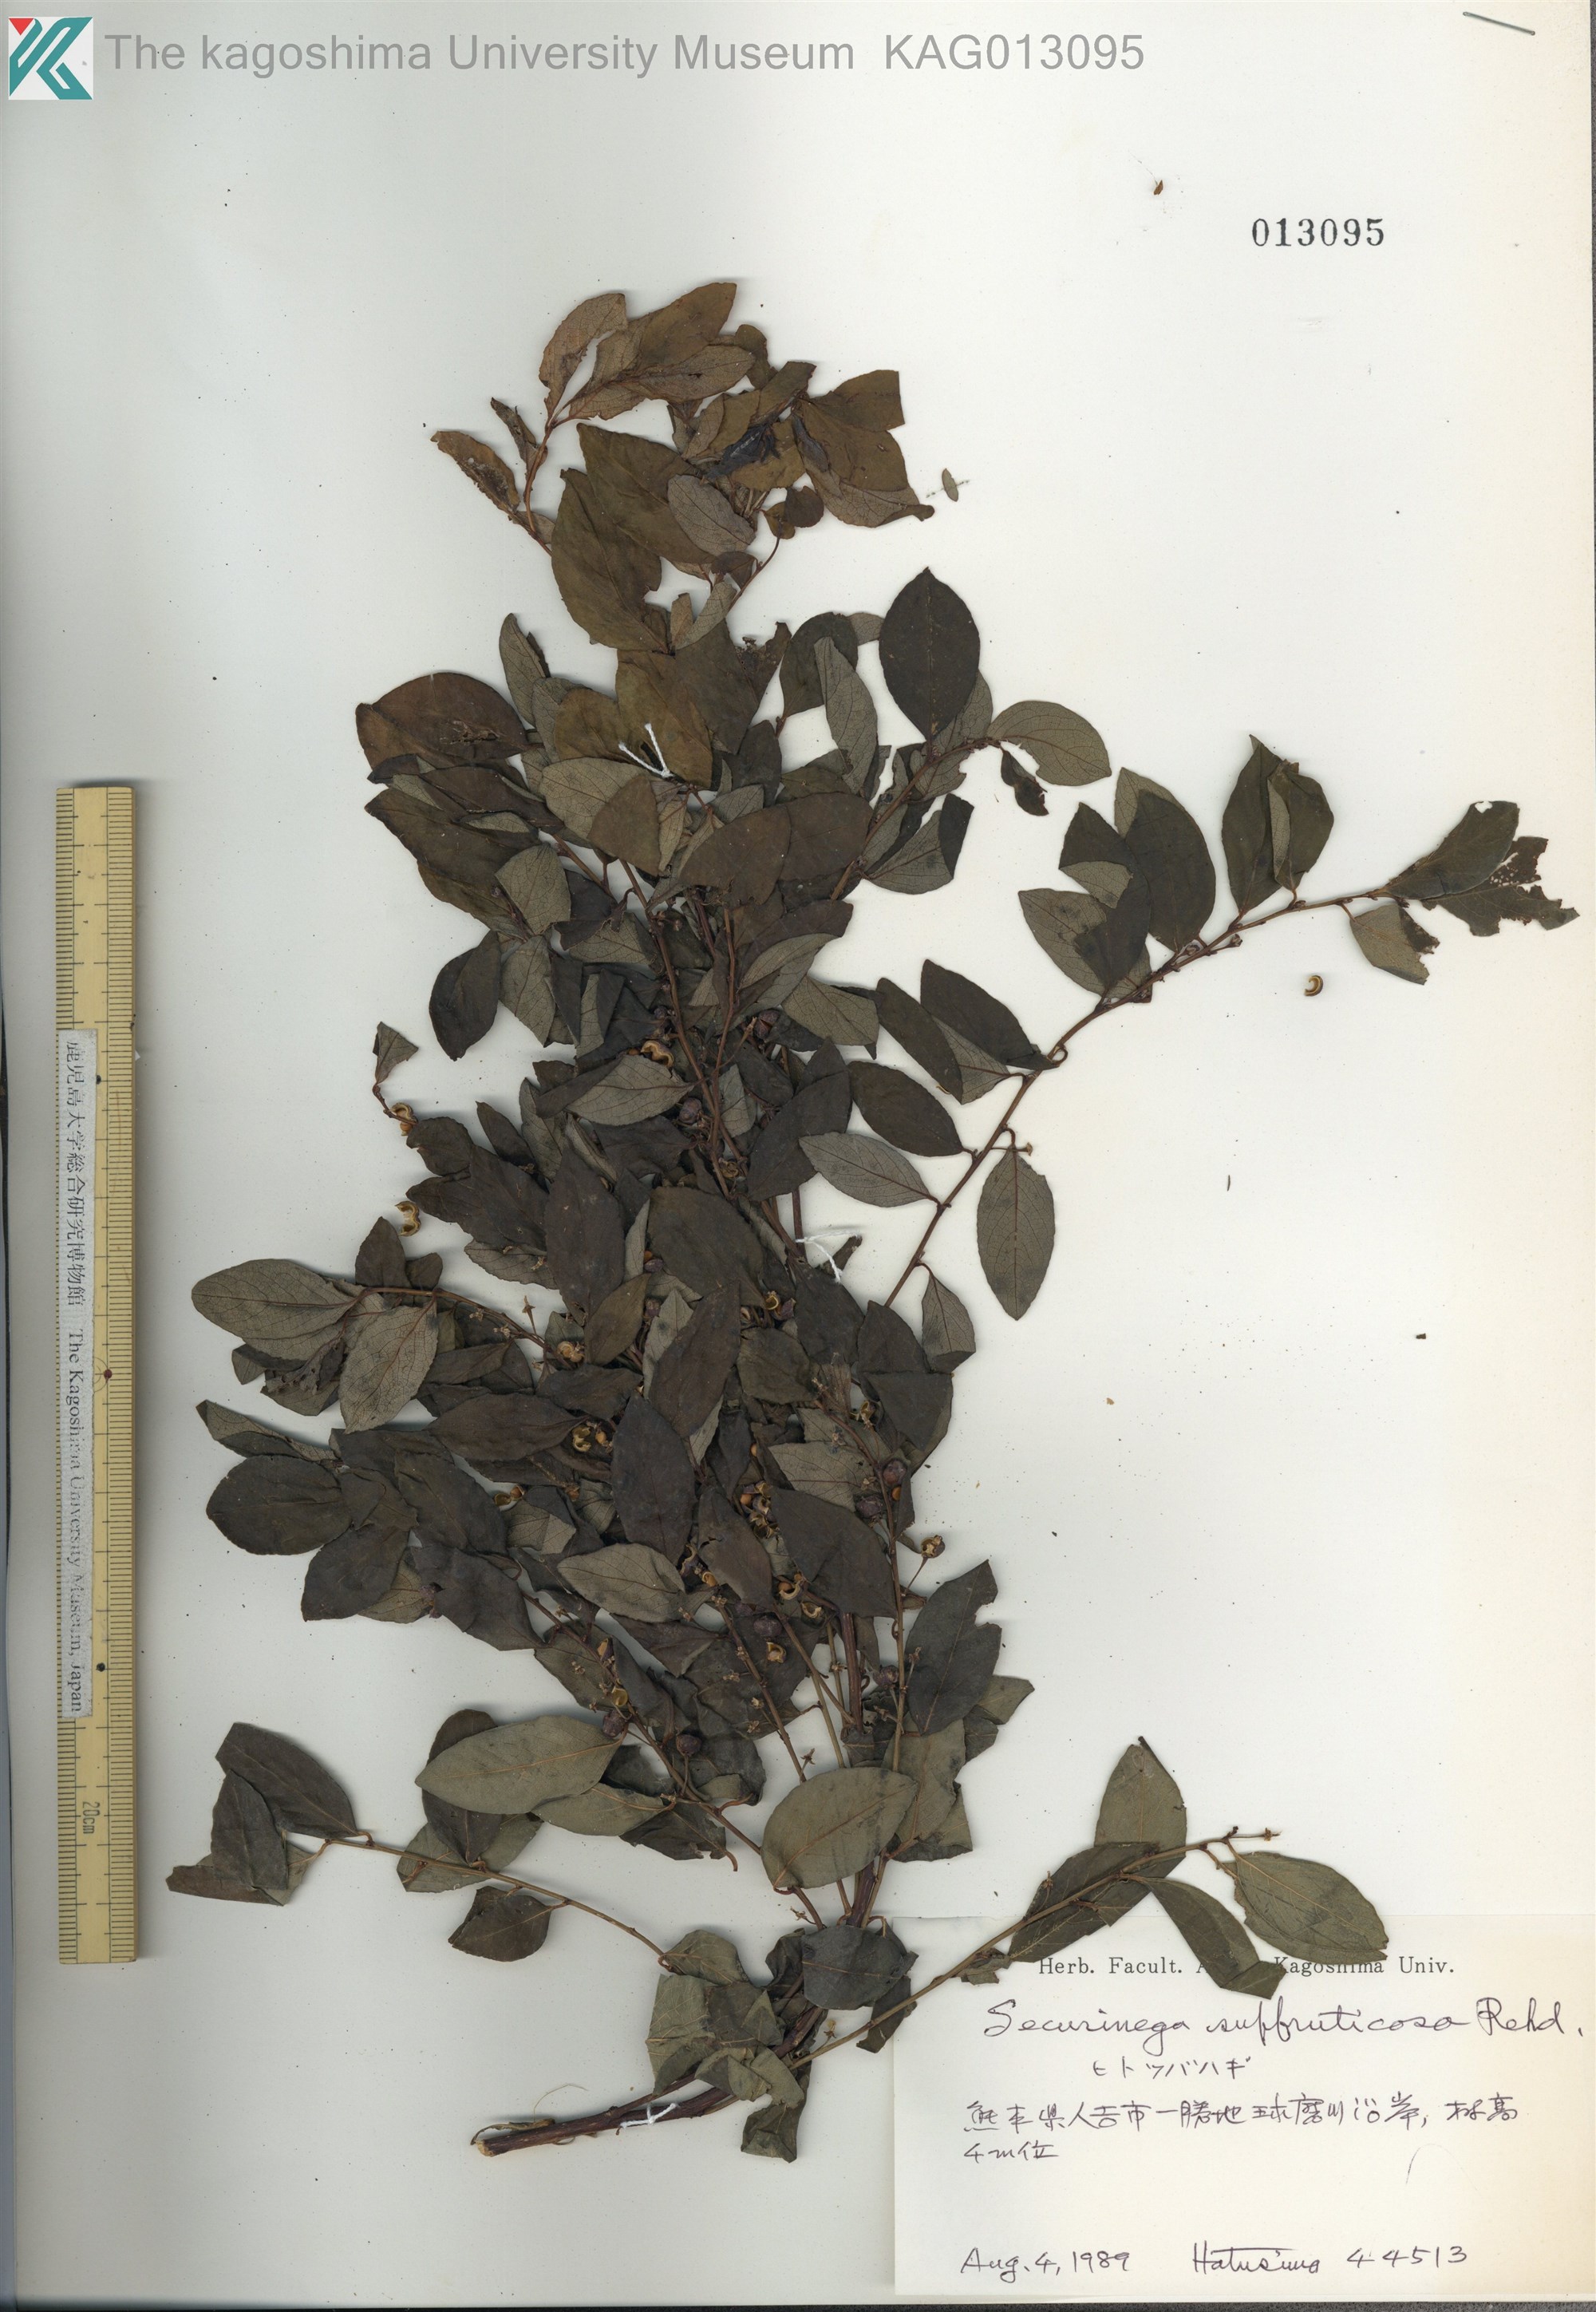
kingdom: Plantae
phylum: Tracheophyta
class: Magnoliopsida
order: Malpighiales
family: Phyllanthaceae
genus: Flueggea
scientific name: Flueggea suffruticosa
